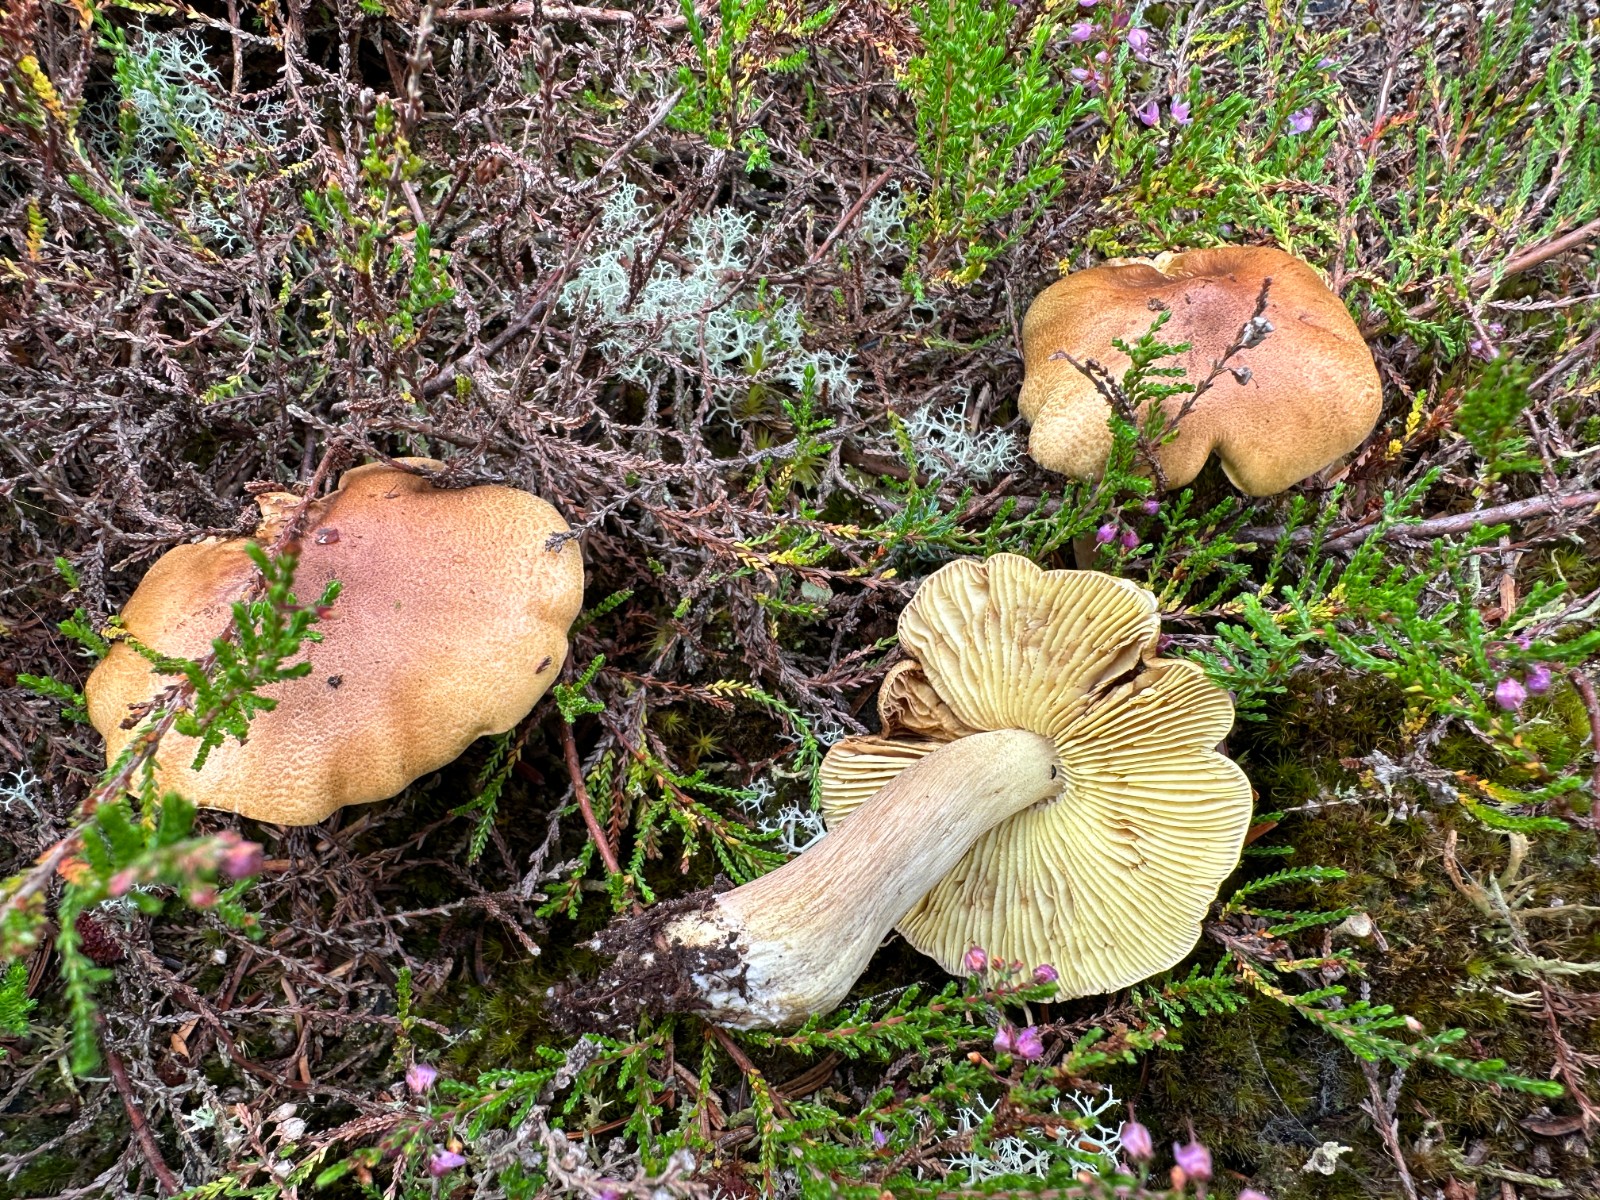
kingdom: Fungi
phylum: Basidiomycota
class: Agaricomycetes
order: Agaricales
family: Tricholomataceae
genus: Tricholoma
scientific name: Tricholoma aestuans
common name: kegle-ridderhat
